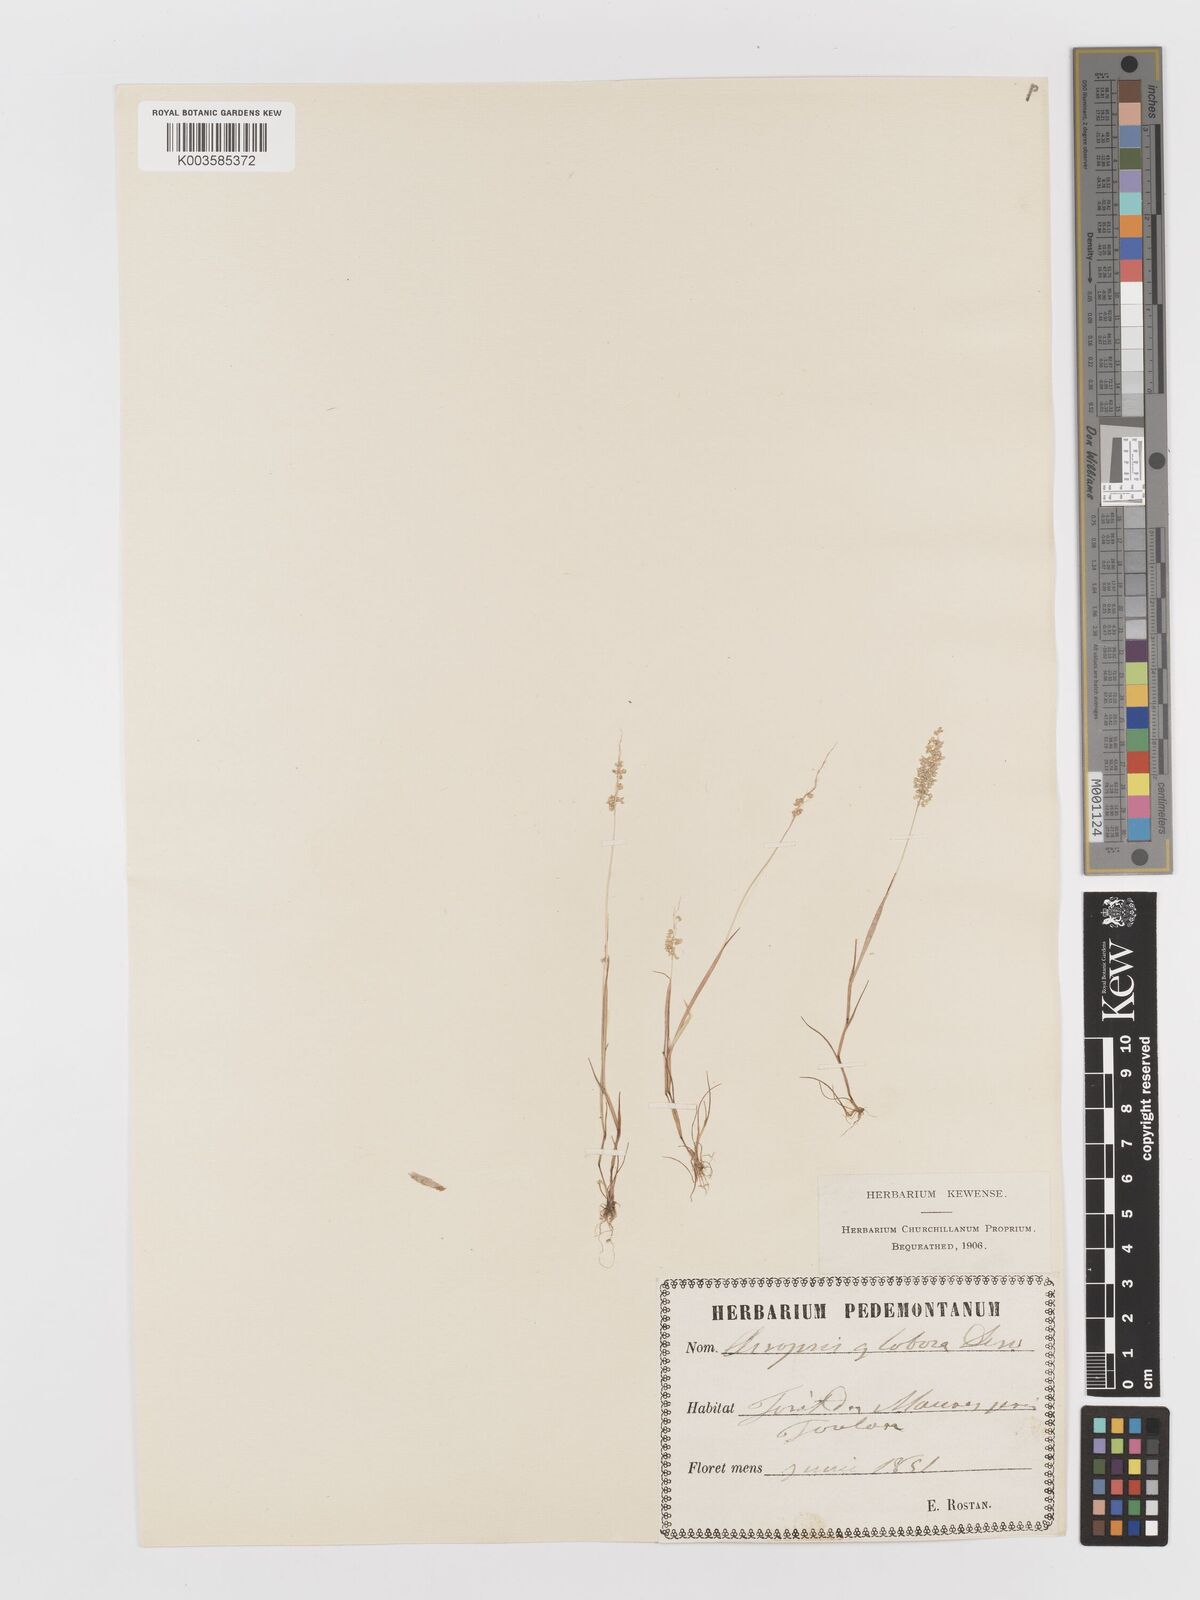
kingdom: Plantae
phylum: Tracheophyta
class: Liliopsida
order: Poales
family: Poaceae
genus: Airopsis
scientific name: Airopsis tenella
